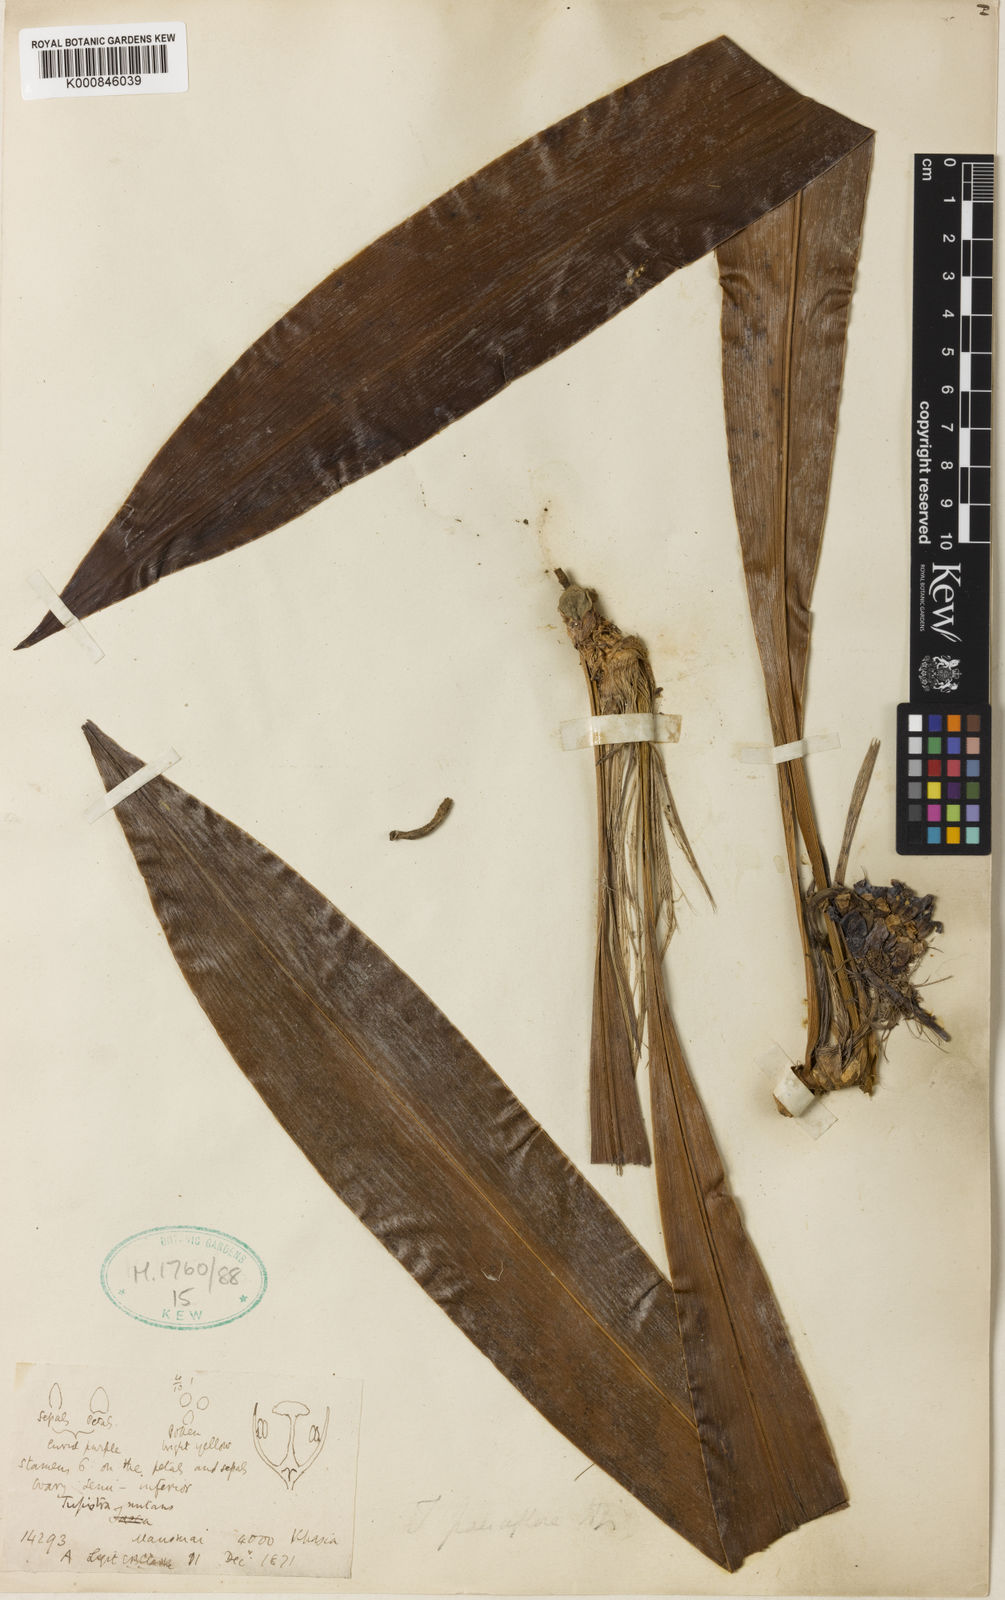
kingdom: Plantae
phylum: Tracheophyta
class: Liliopsida
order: Asparagales
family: Asparagaceae
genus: Tupistra
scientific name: Tupistra nutans
